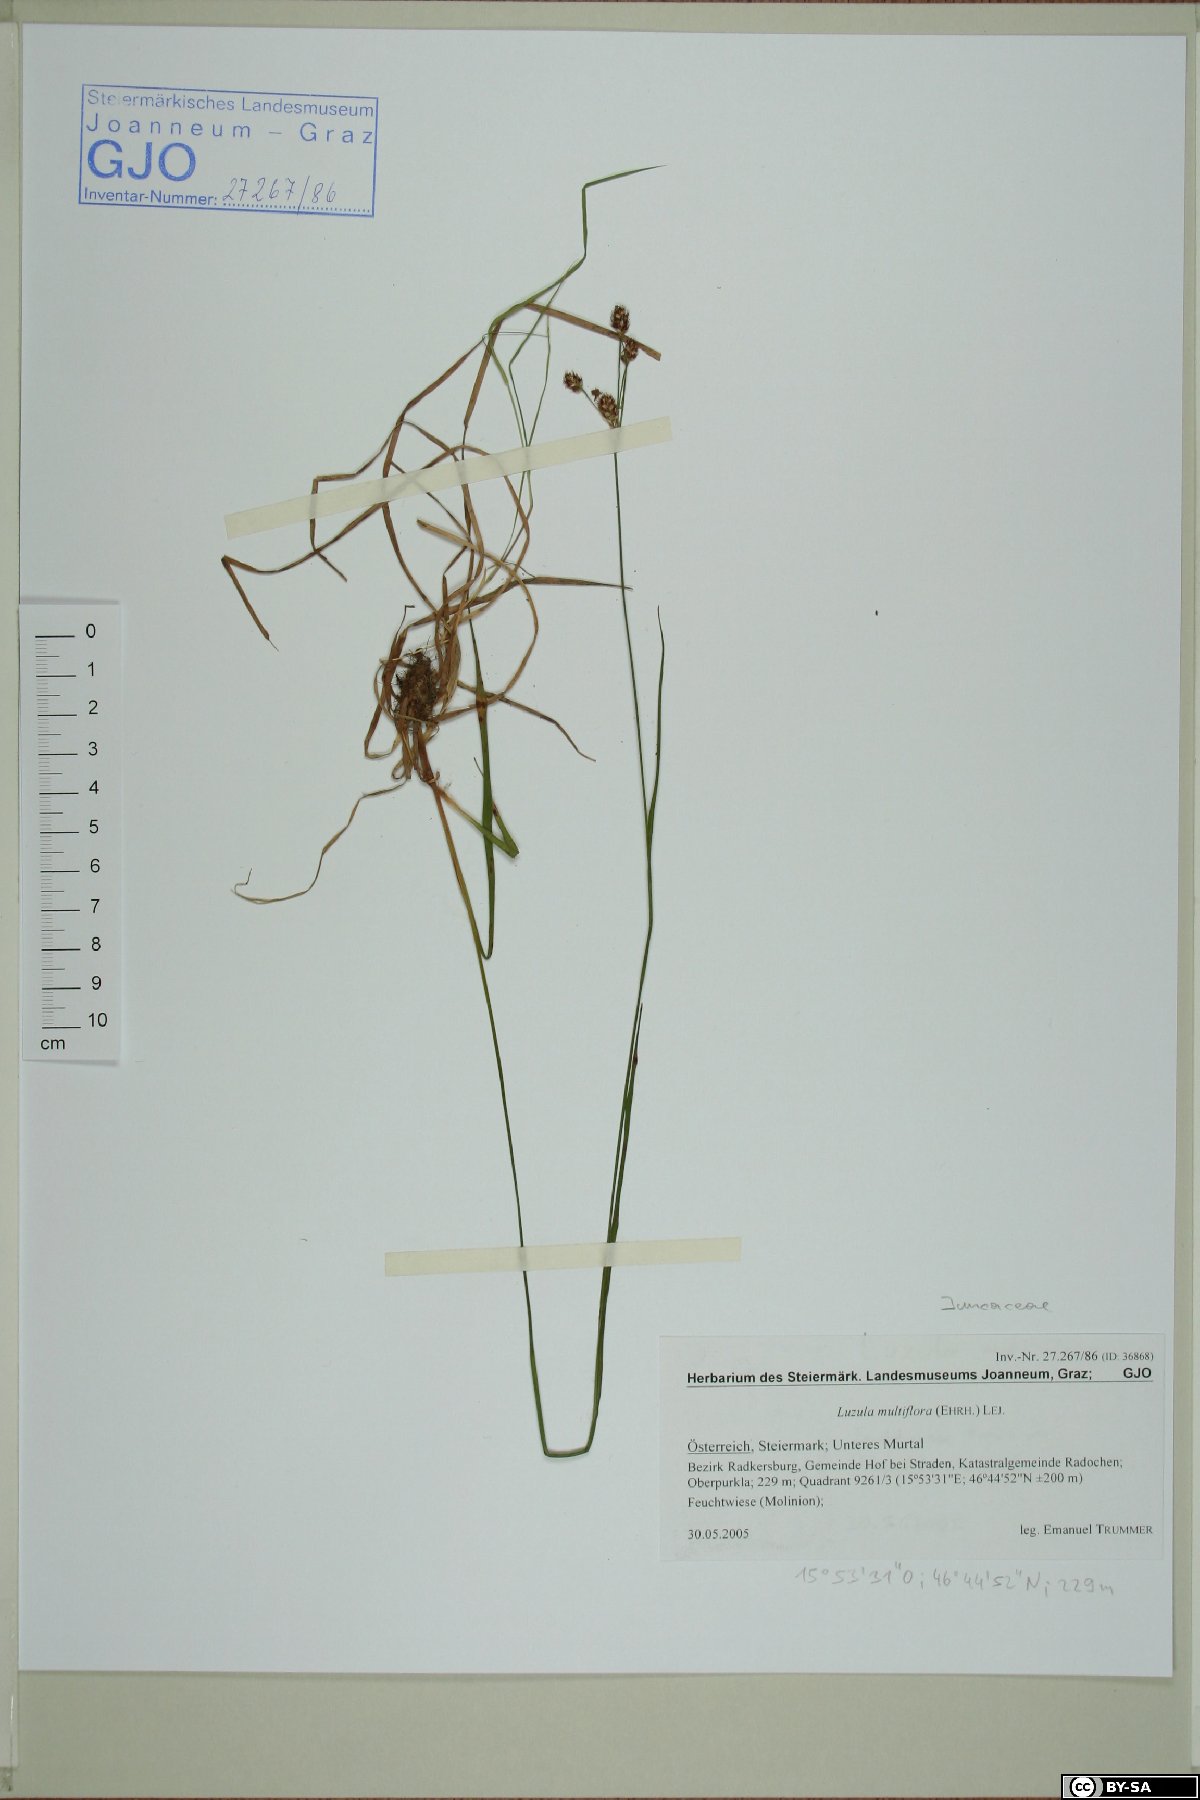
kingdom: Plantae
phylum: Tracheophyta
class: Liliopsida
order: Poales
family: Juncaceae
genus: Luzula
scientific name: Luzula multiflora
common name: Heath wood-rush
